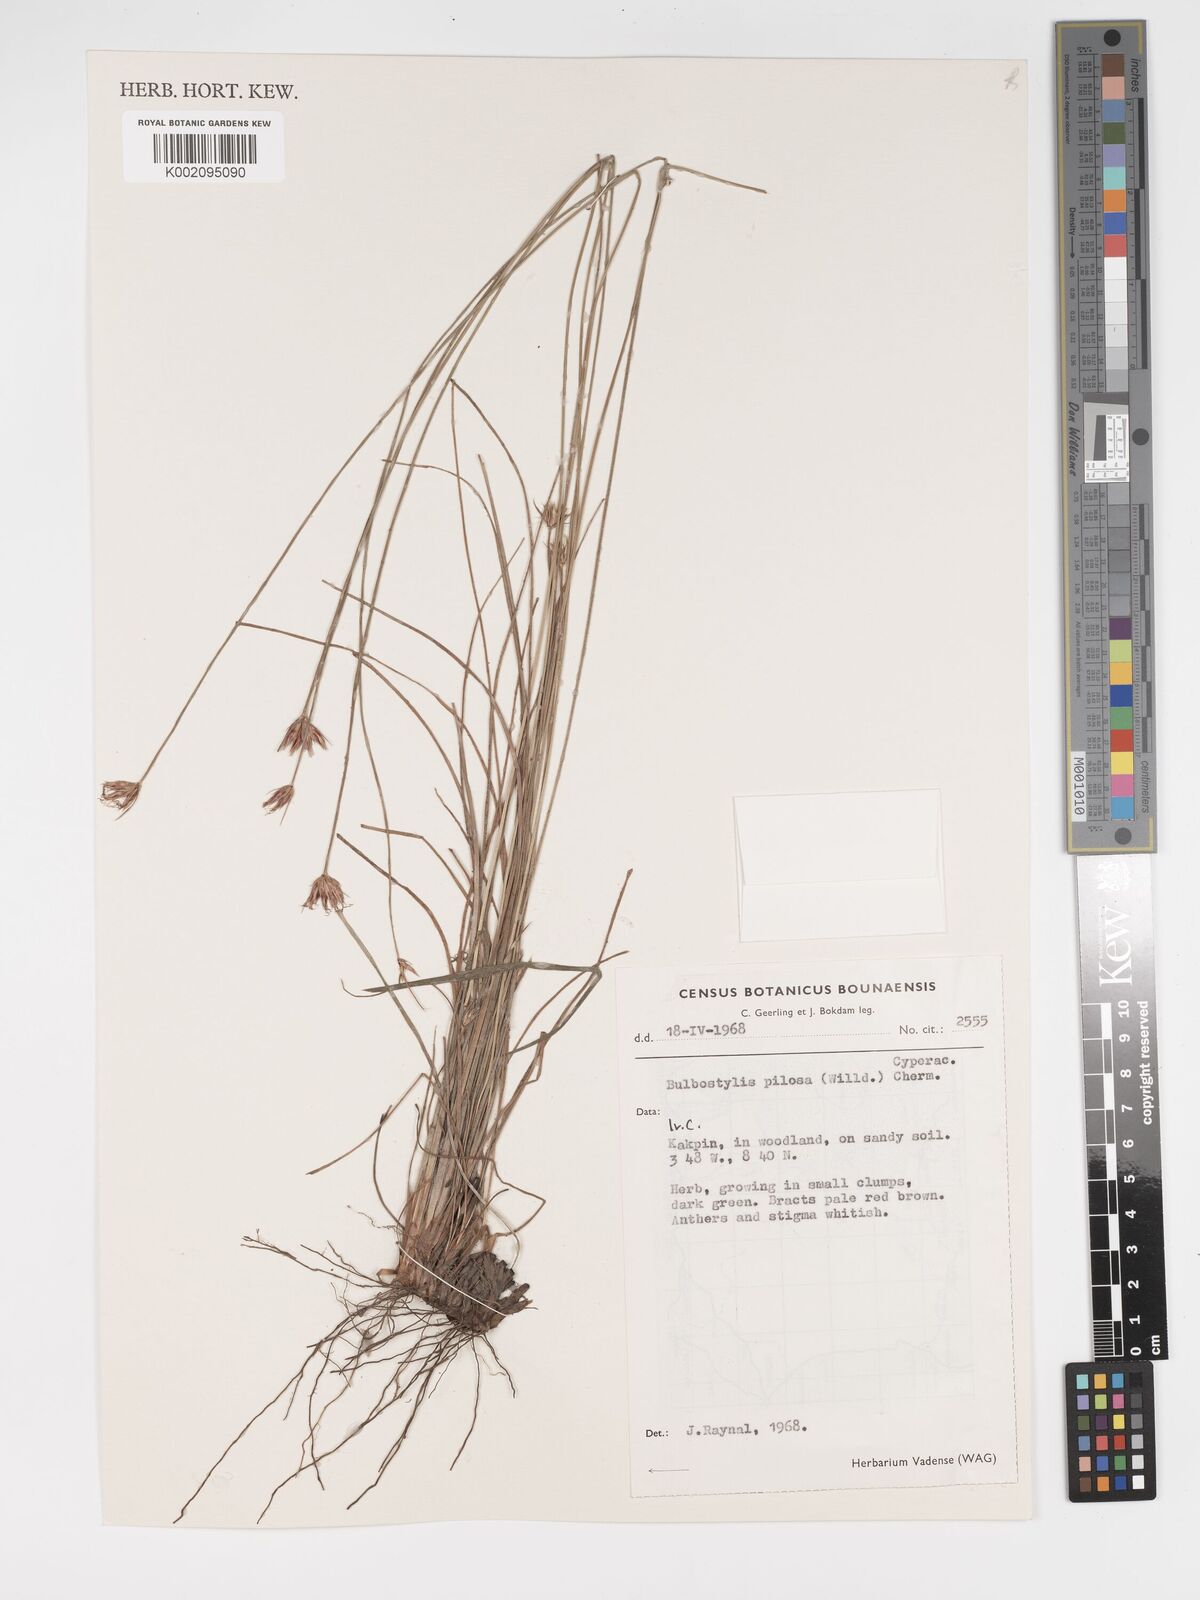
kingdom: Plantae
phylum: Tracheophyta
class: Liliopsida
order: Poales
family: Cyperaceae
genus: Bulbostylis
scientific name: Bulbostylis pilosa
